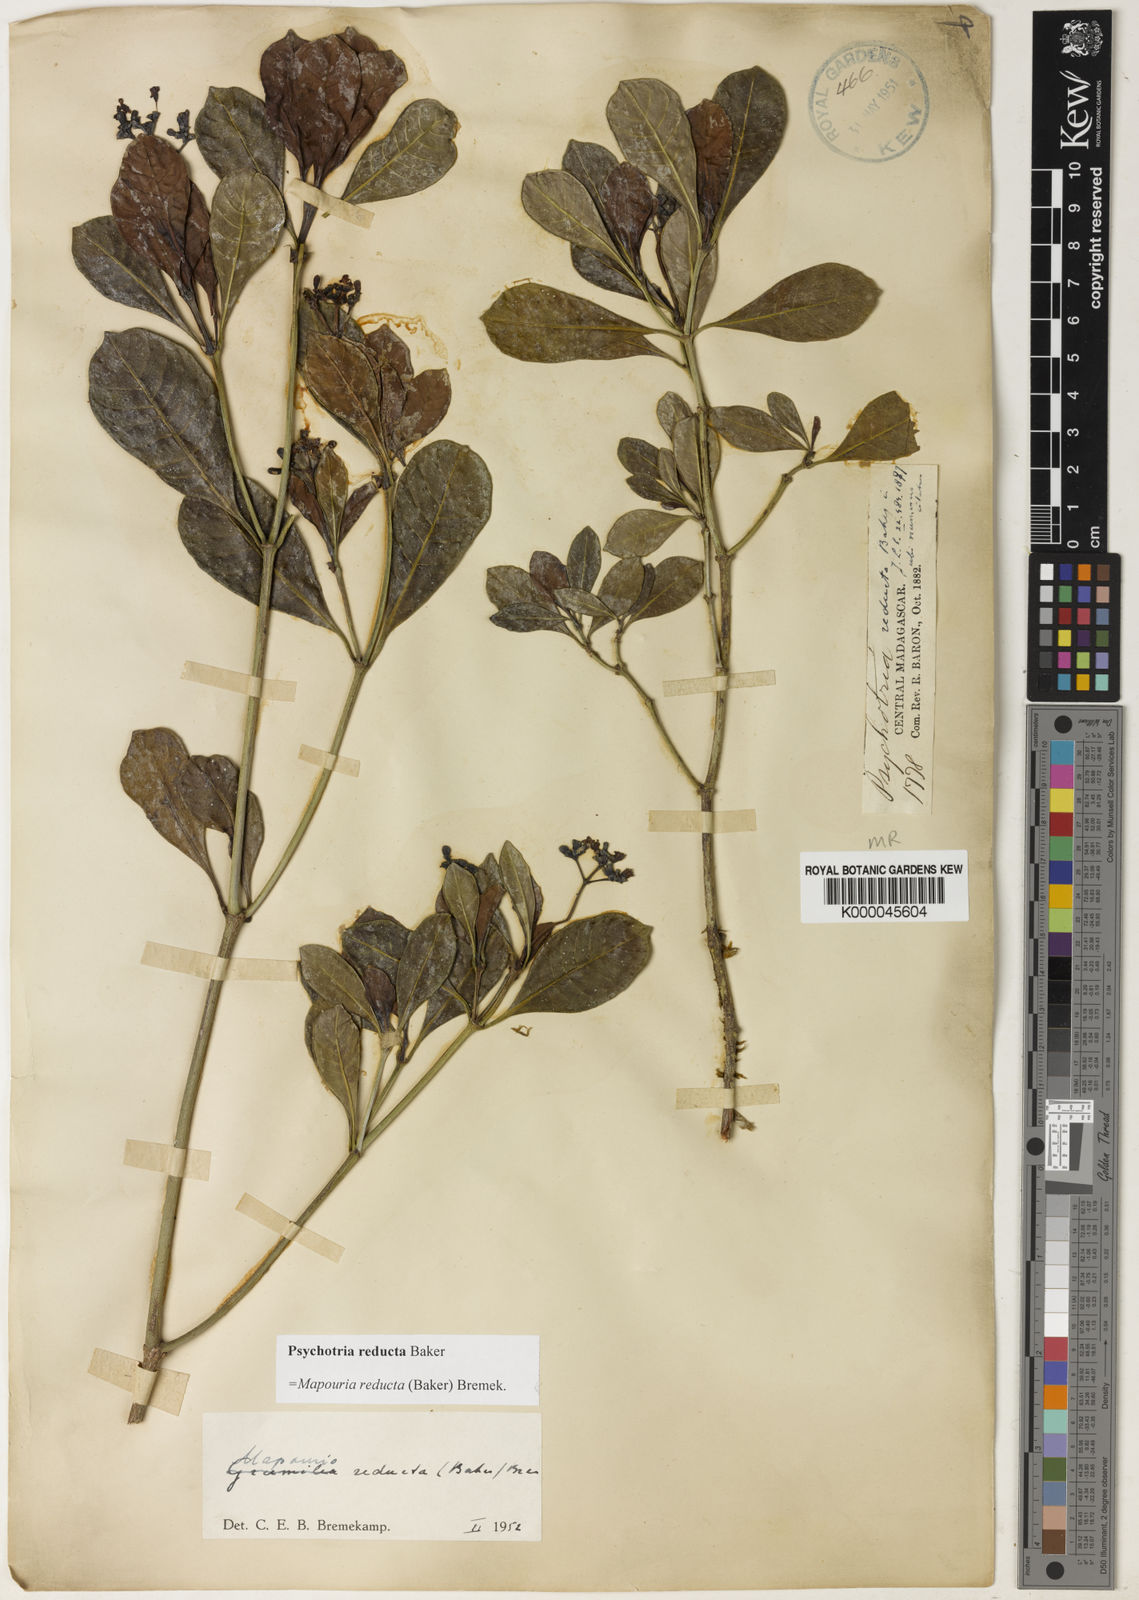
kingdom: Plantae
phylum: Tracheophyta
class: Magnoliopsida
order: Gentianales
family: Rubiaceae
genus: Psychotria
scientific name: Psychotria reducta
